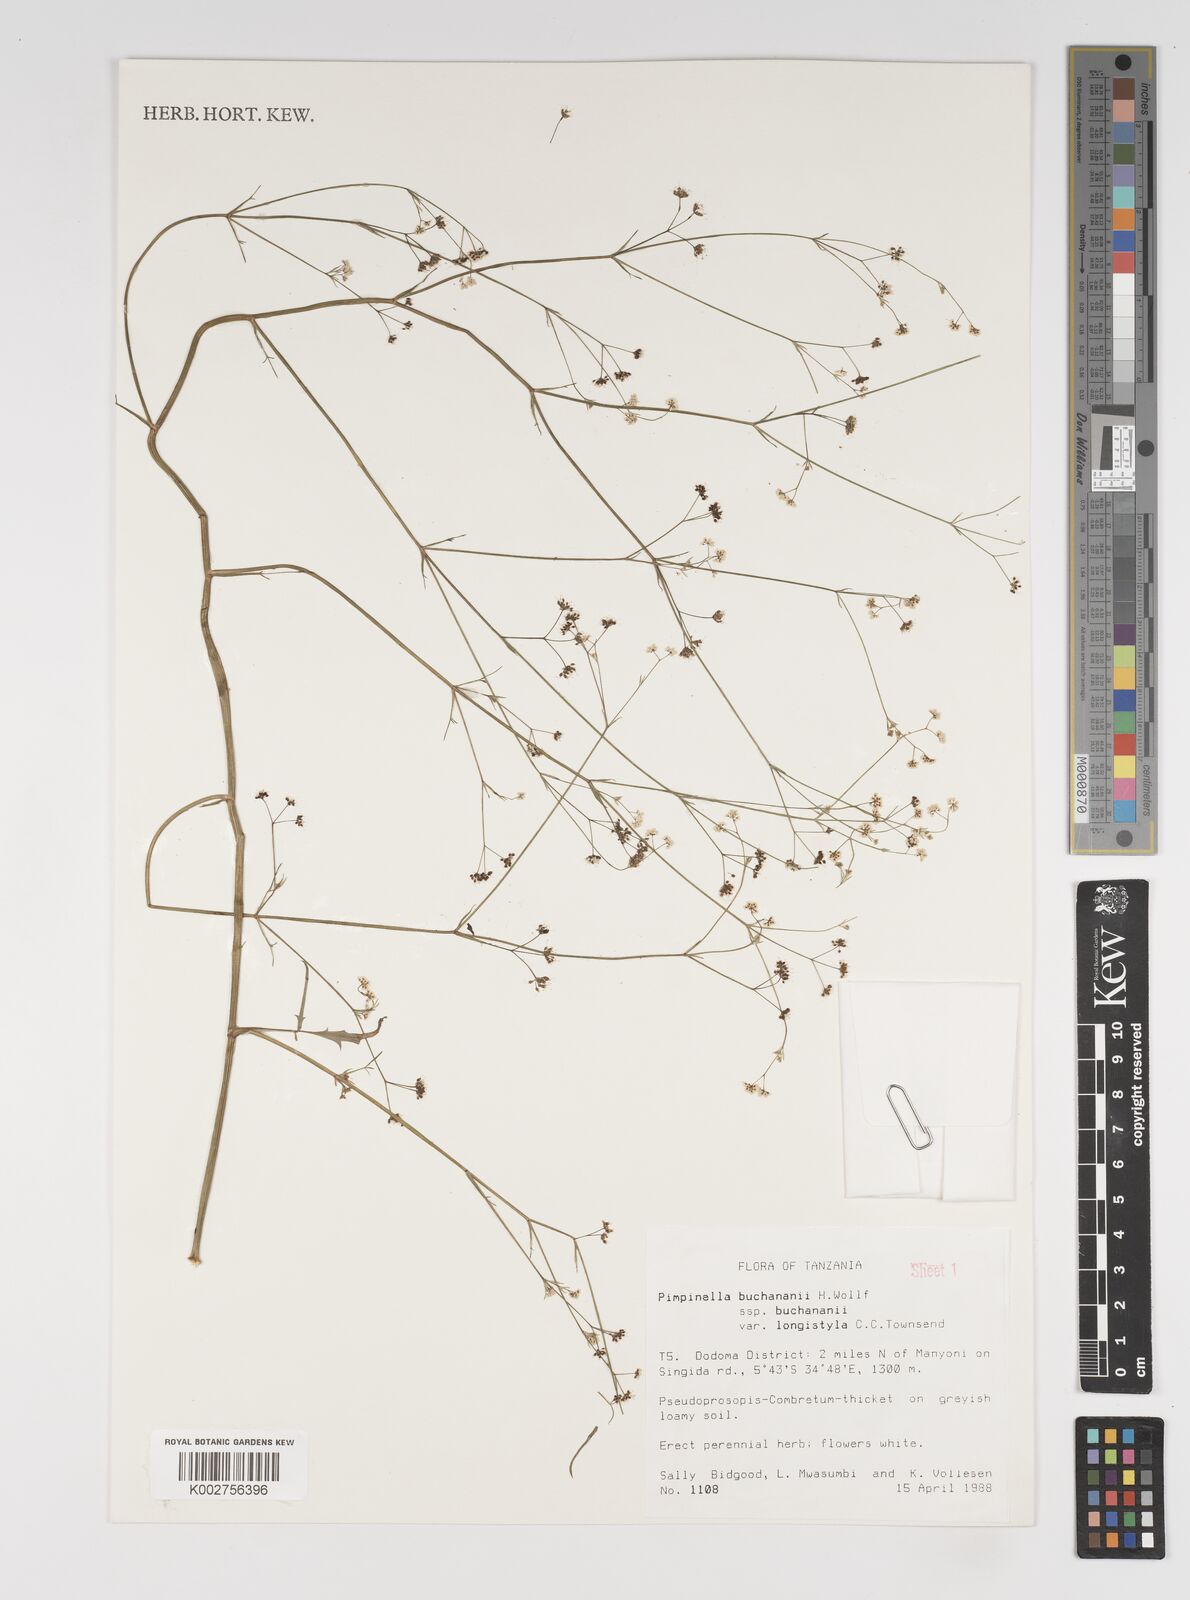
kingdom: Plantae
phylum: Tracheophyta
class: Magnoliopsida
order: Apiales
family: Apiaceae
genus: Pimpinella
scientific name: Pimpinella buchananii
